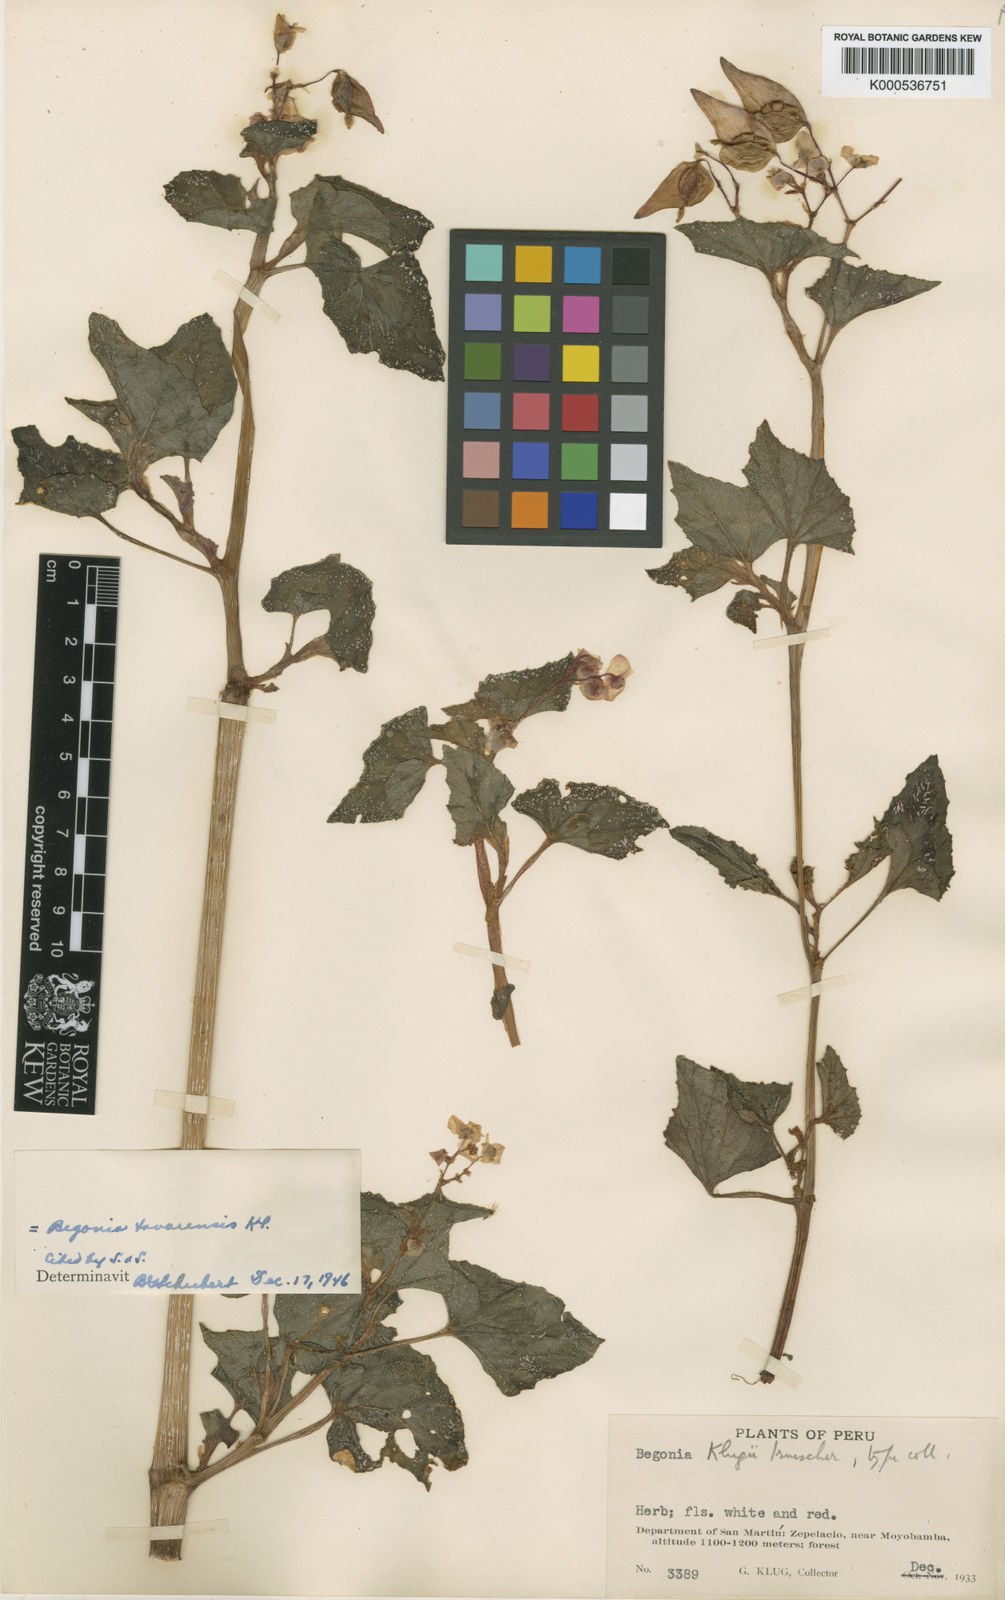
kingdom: Plantae
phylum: Tracheophyta
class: Magnoliopsida
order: Cucurbitales
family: Begoniaceae
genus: Begonia
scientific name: Begonia fischeri
